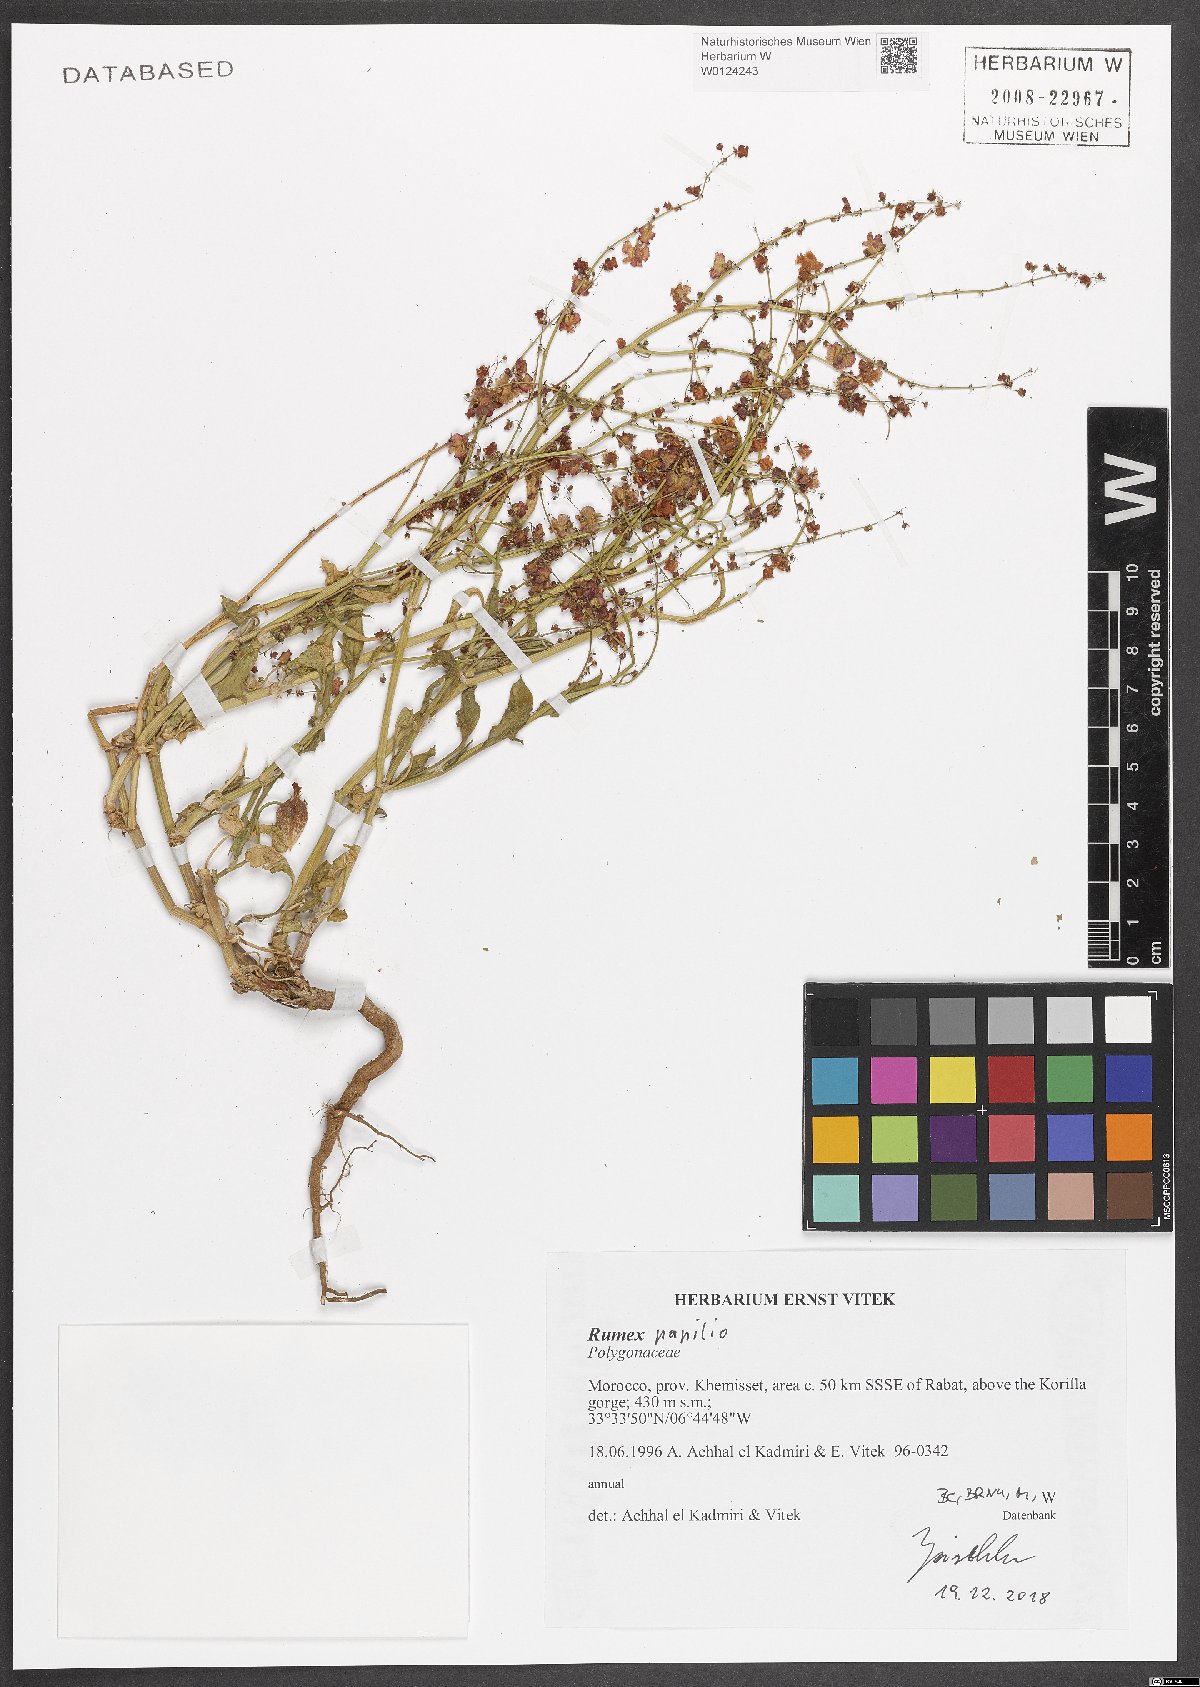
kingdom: Plantae
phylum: Tracheophyta
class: Magnoliopsida
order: Caryophyllales
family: Polygonaceae
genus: Rumex
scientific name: Rumex papilio
